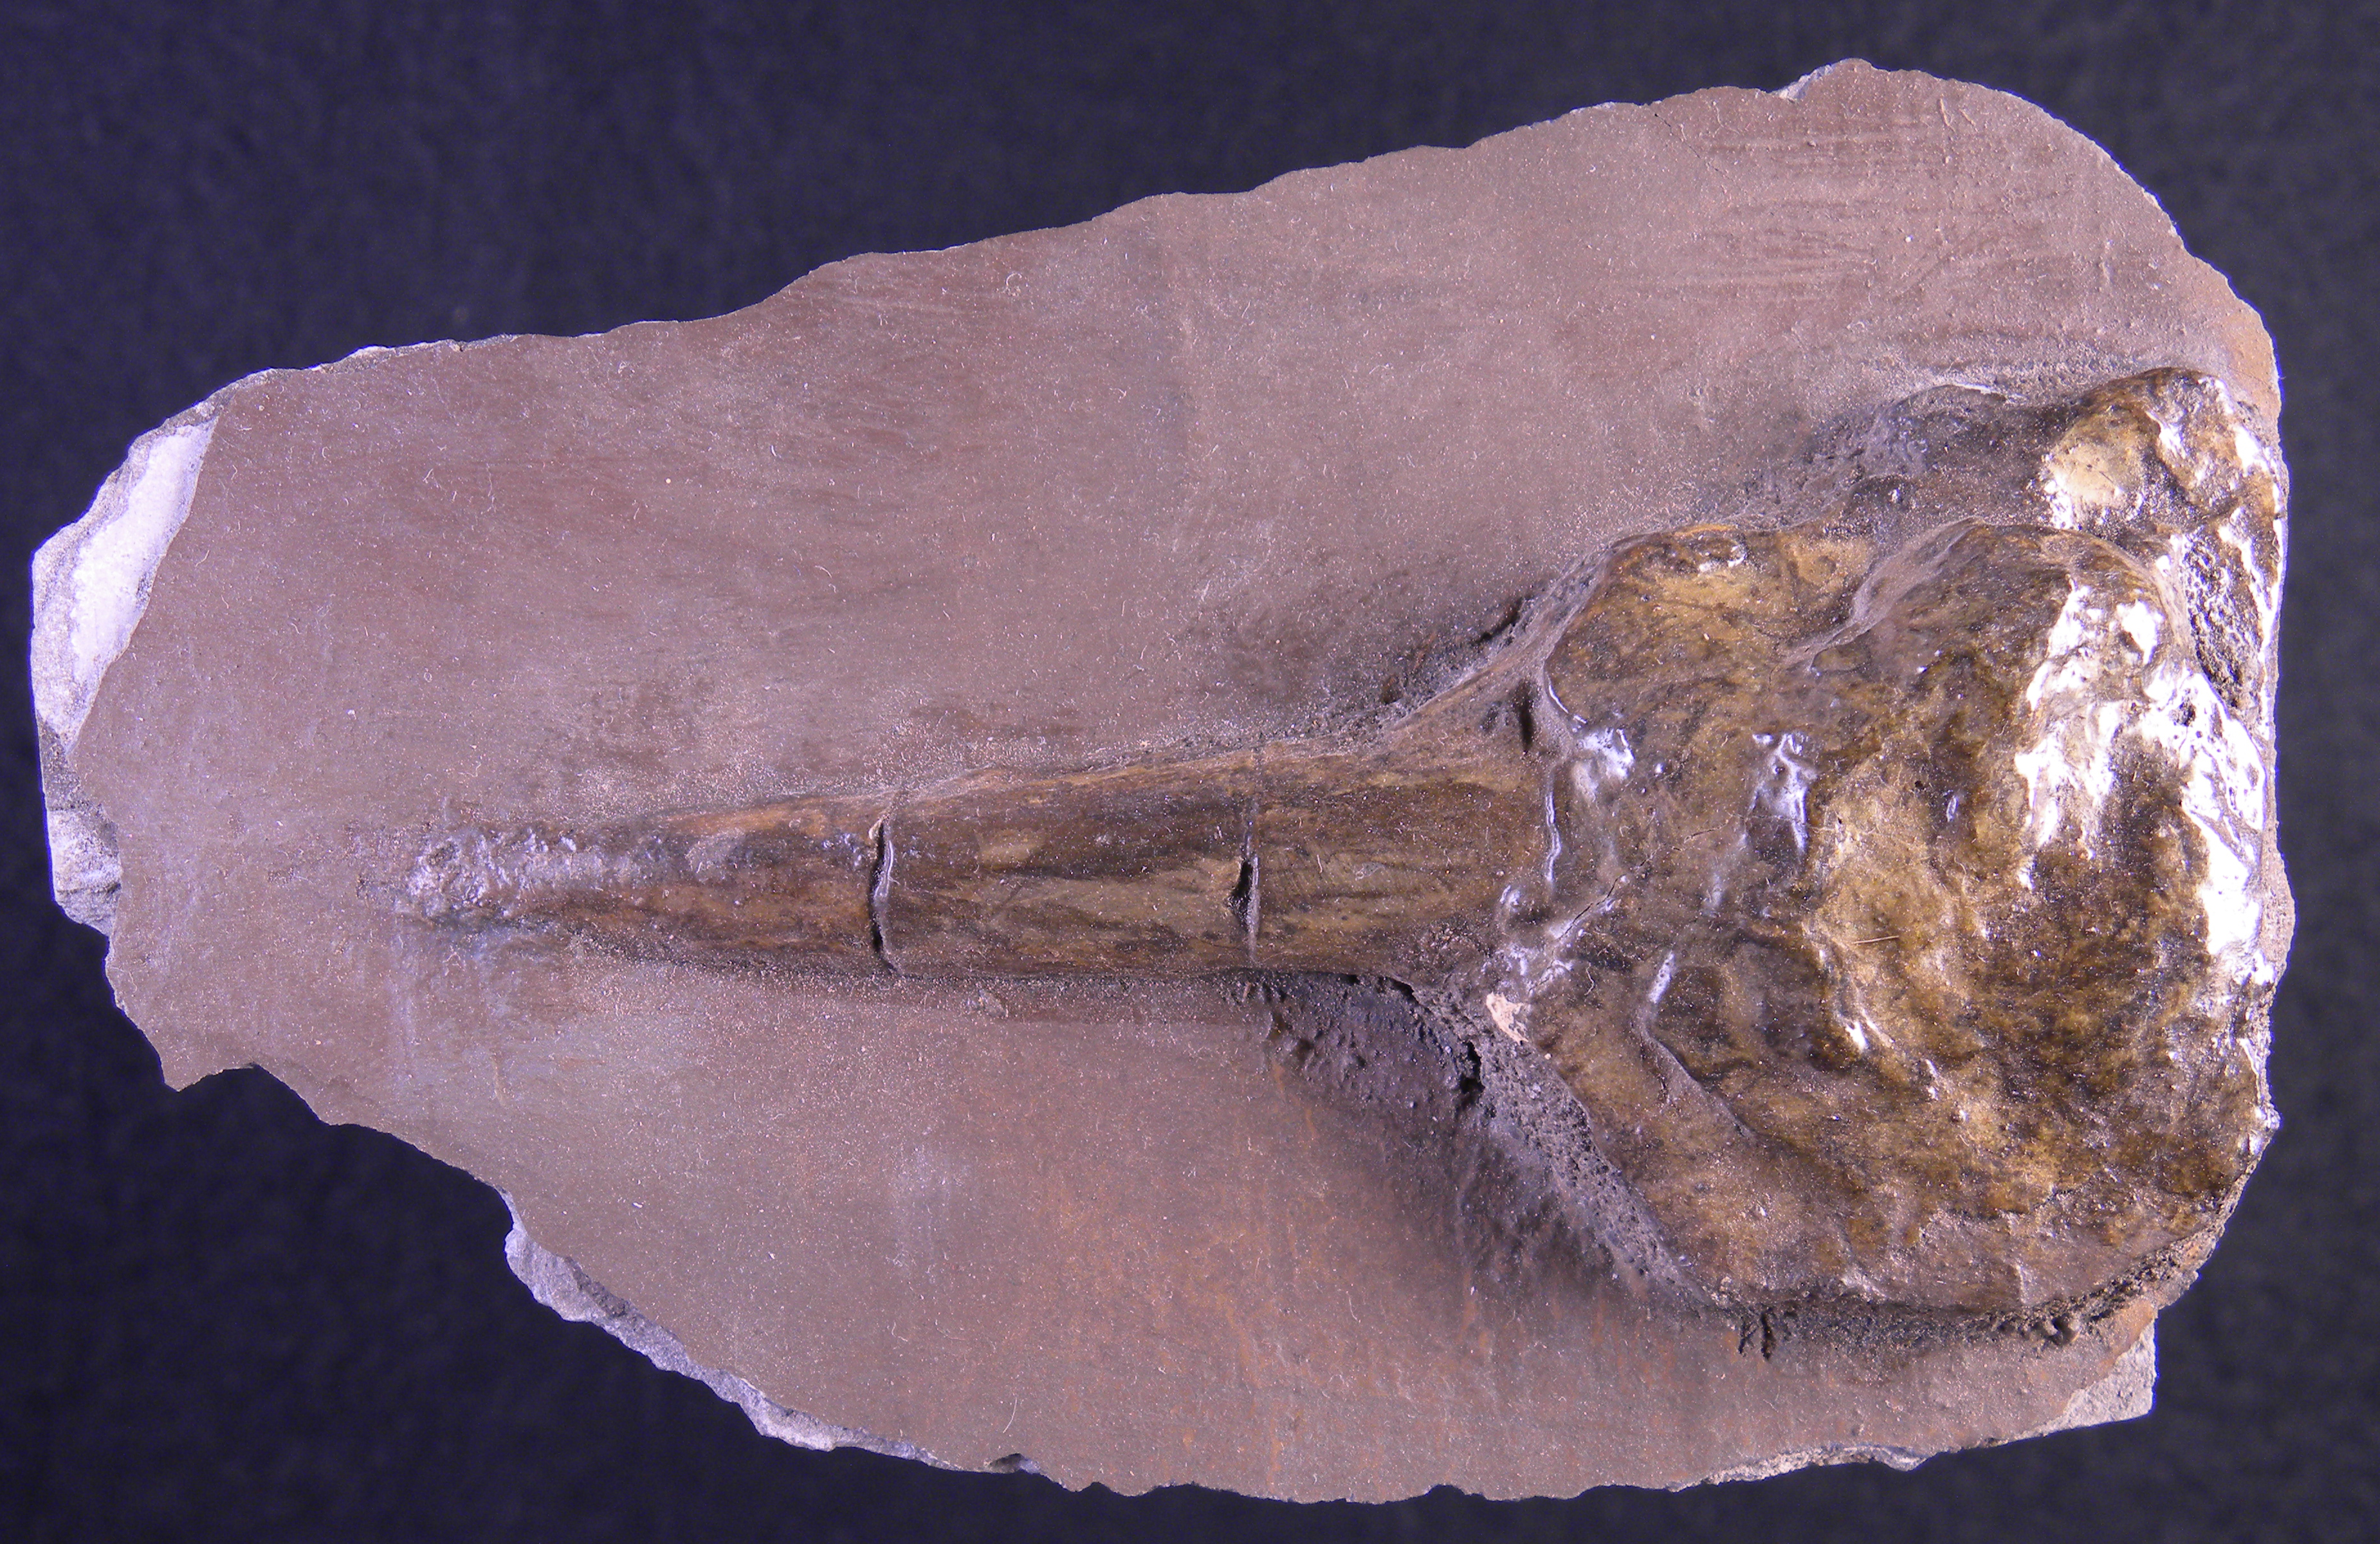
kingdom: Animalia
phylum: Mollusca
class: Cephalopoda
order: Belemnitida
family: Megateuthididae
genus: Acrocoelites
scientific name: Acrocoelites
